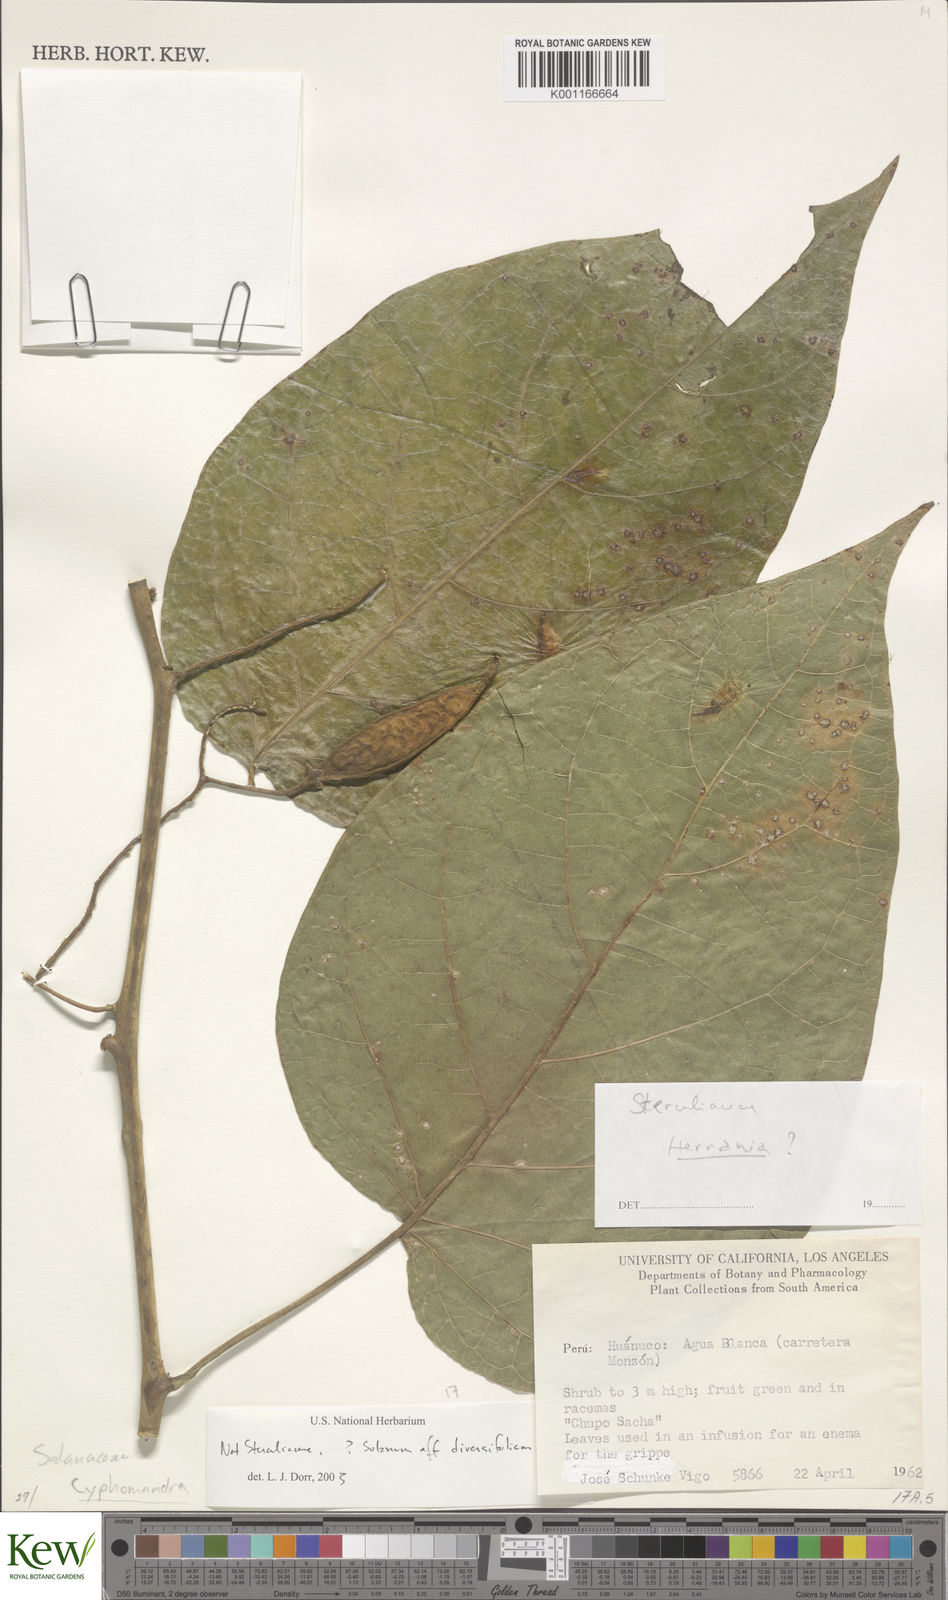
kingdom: Plantae
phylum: Tracheophyta
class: Magnoliopsida
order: Solanales
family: Solanaceae
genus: Solanum
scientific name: Solanum
